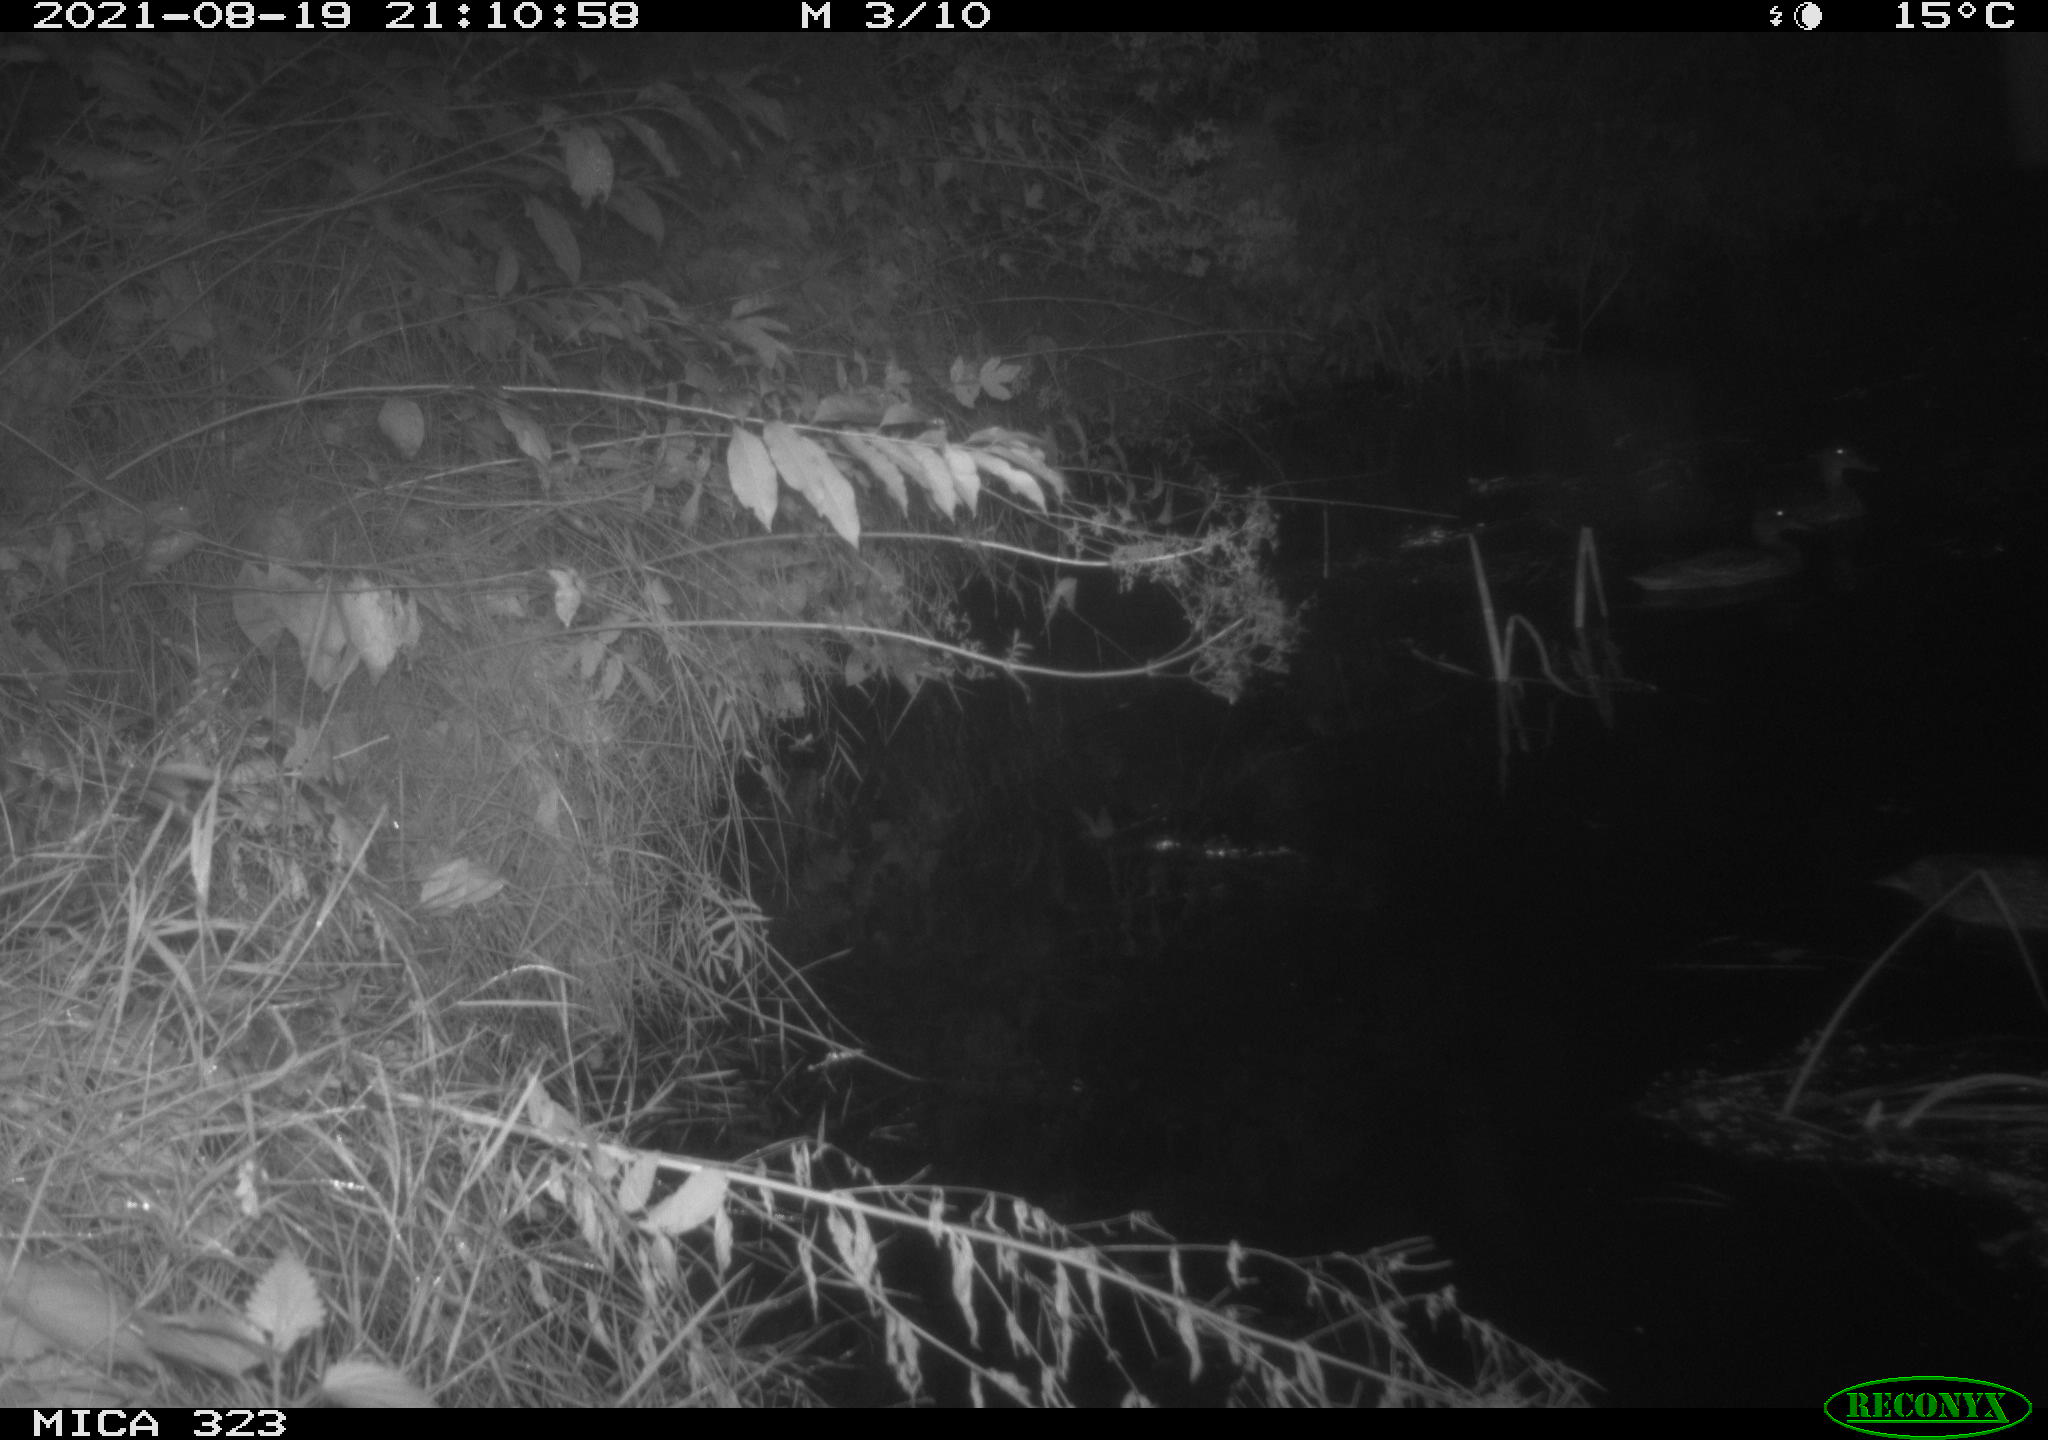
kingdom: Animalia
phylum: Chordata
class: Aves
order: Anseriformes
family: Anatidae
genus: Anas
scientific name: Anas
